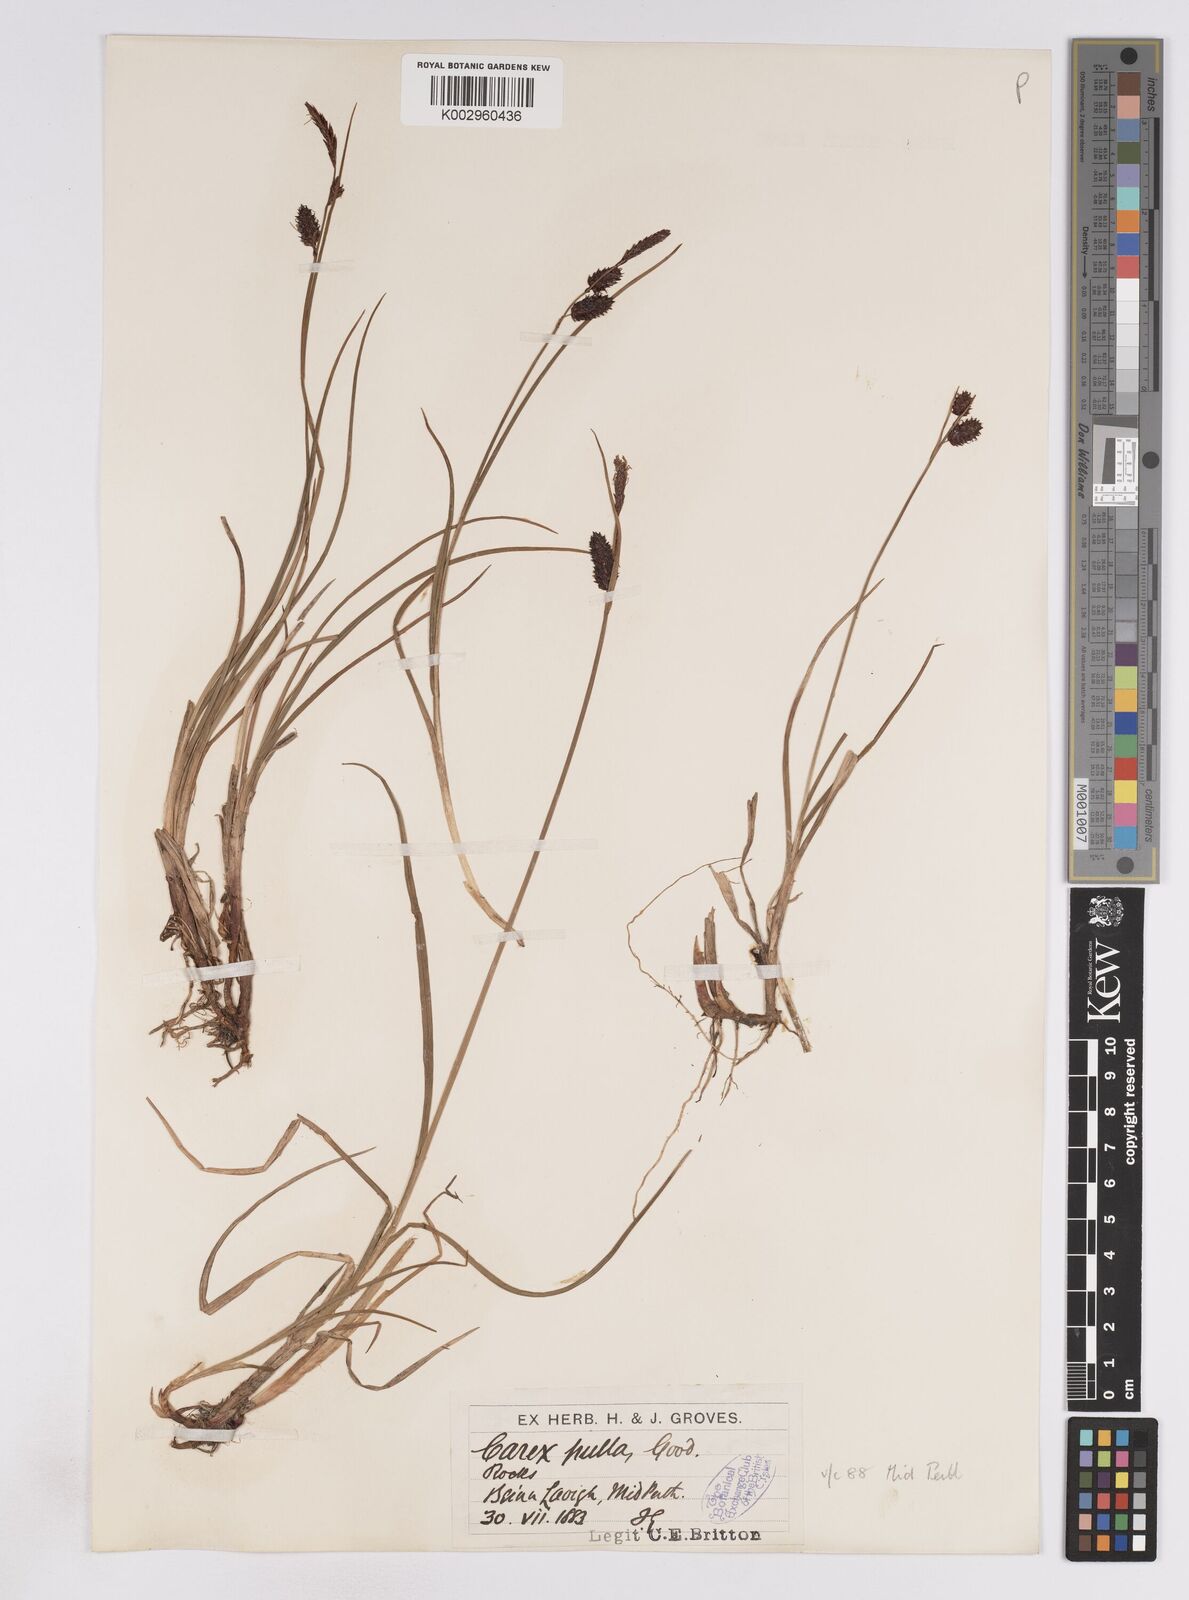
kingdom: Plantae
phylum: Tracheophyta
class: Liliopsida
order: Poales
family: Cyperaceae
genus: Carex
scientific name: Carex saxatilis
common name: Russet sedge
